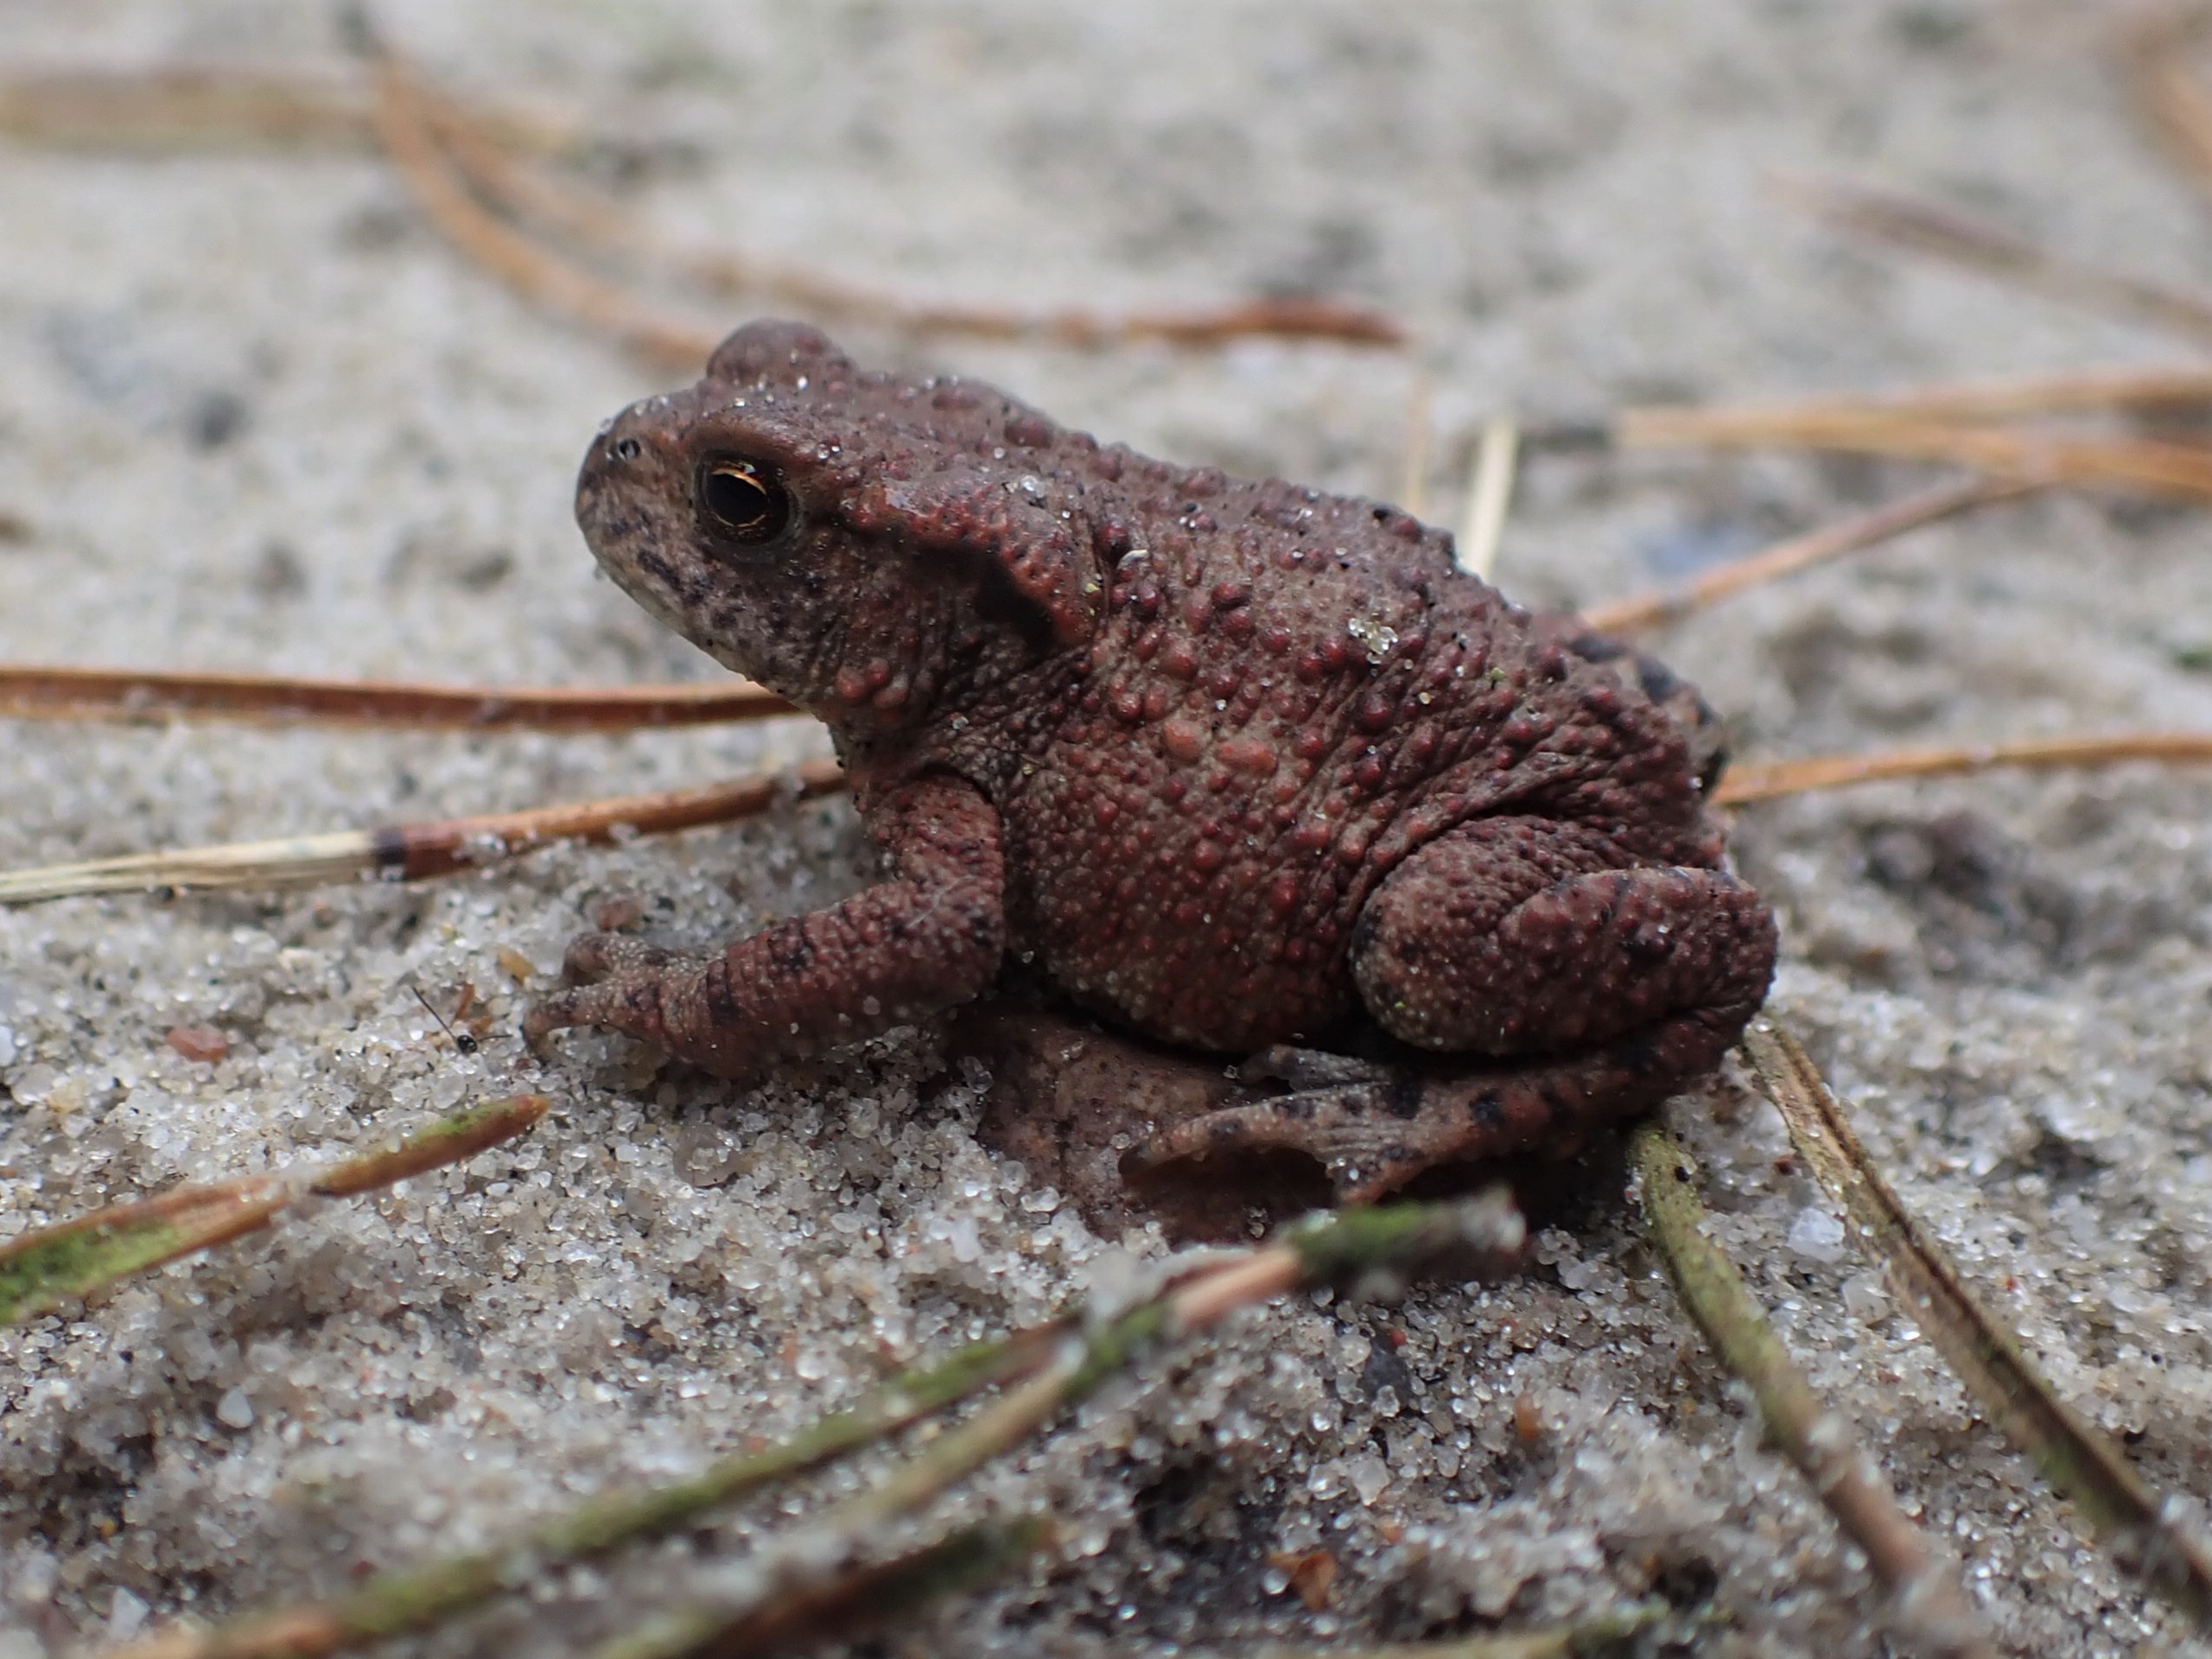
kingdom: Animalia
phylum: Chordata
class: Amphibia
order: Anura
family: Bufonidae
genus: Bufo
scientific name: Bufo bufo
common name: Skrubtudse
